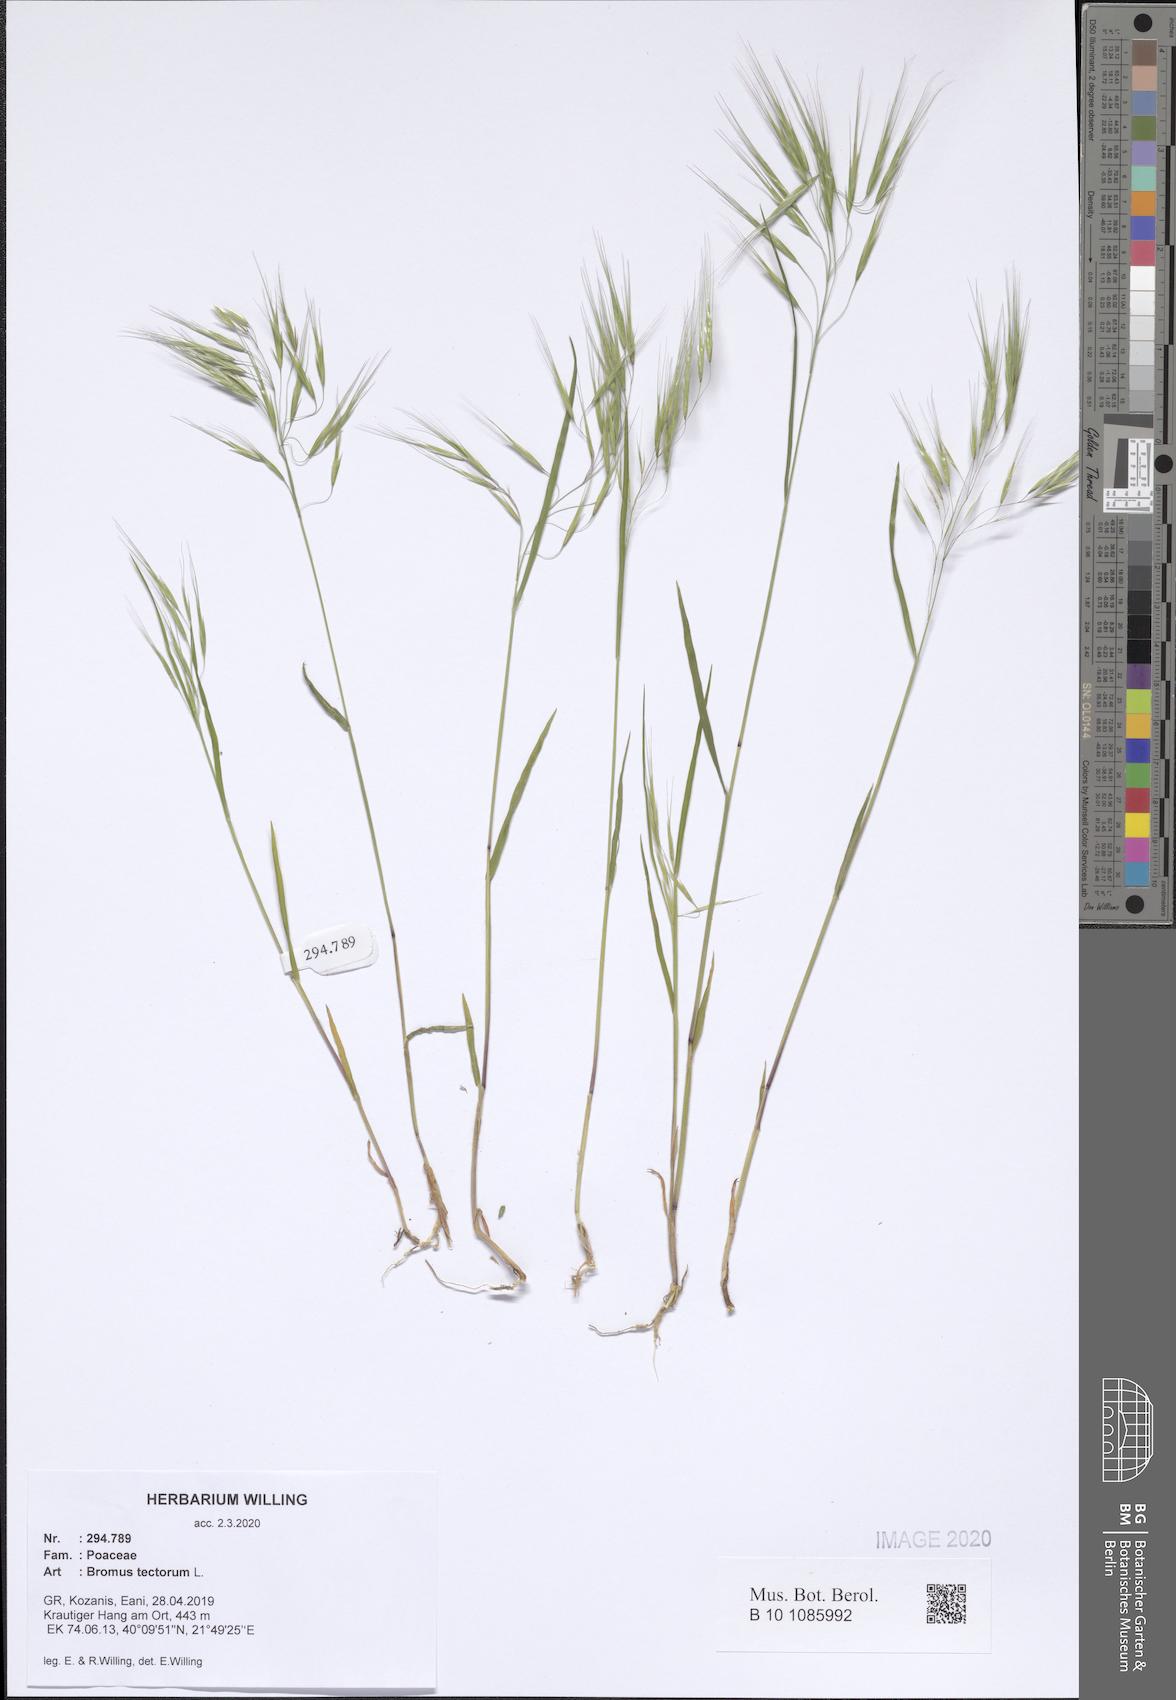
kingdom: Plantae
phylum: Tracheophyta
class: Liliopsida
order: Poales
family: Poaceae
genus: Bromus
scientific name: Bromus tectorum
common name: Cheatgrass
